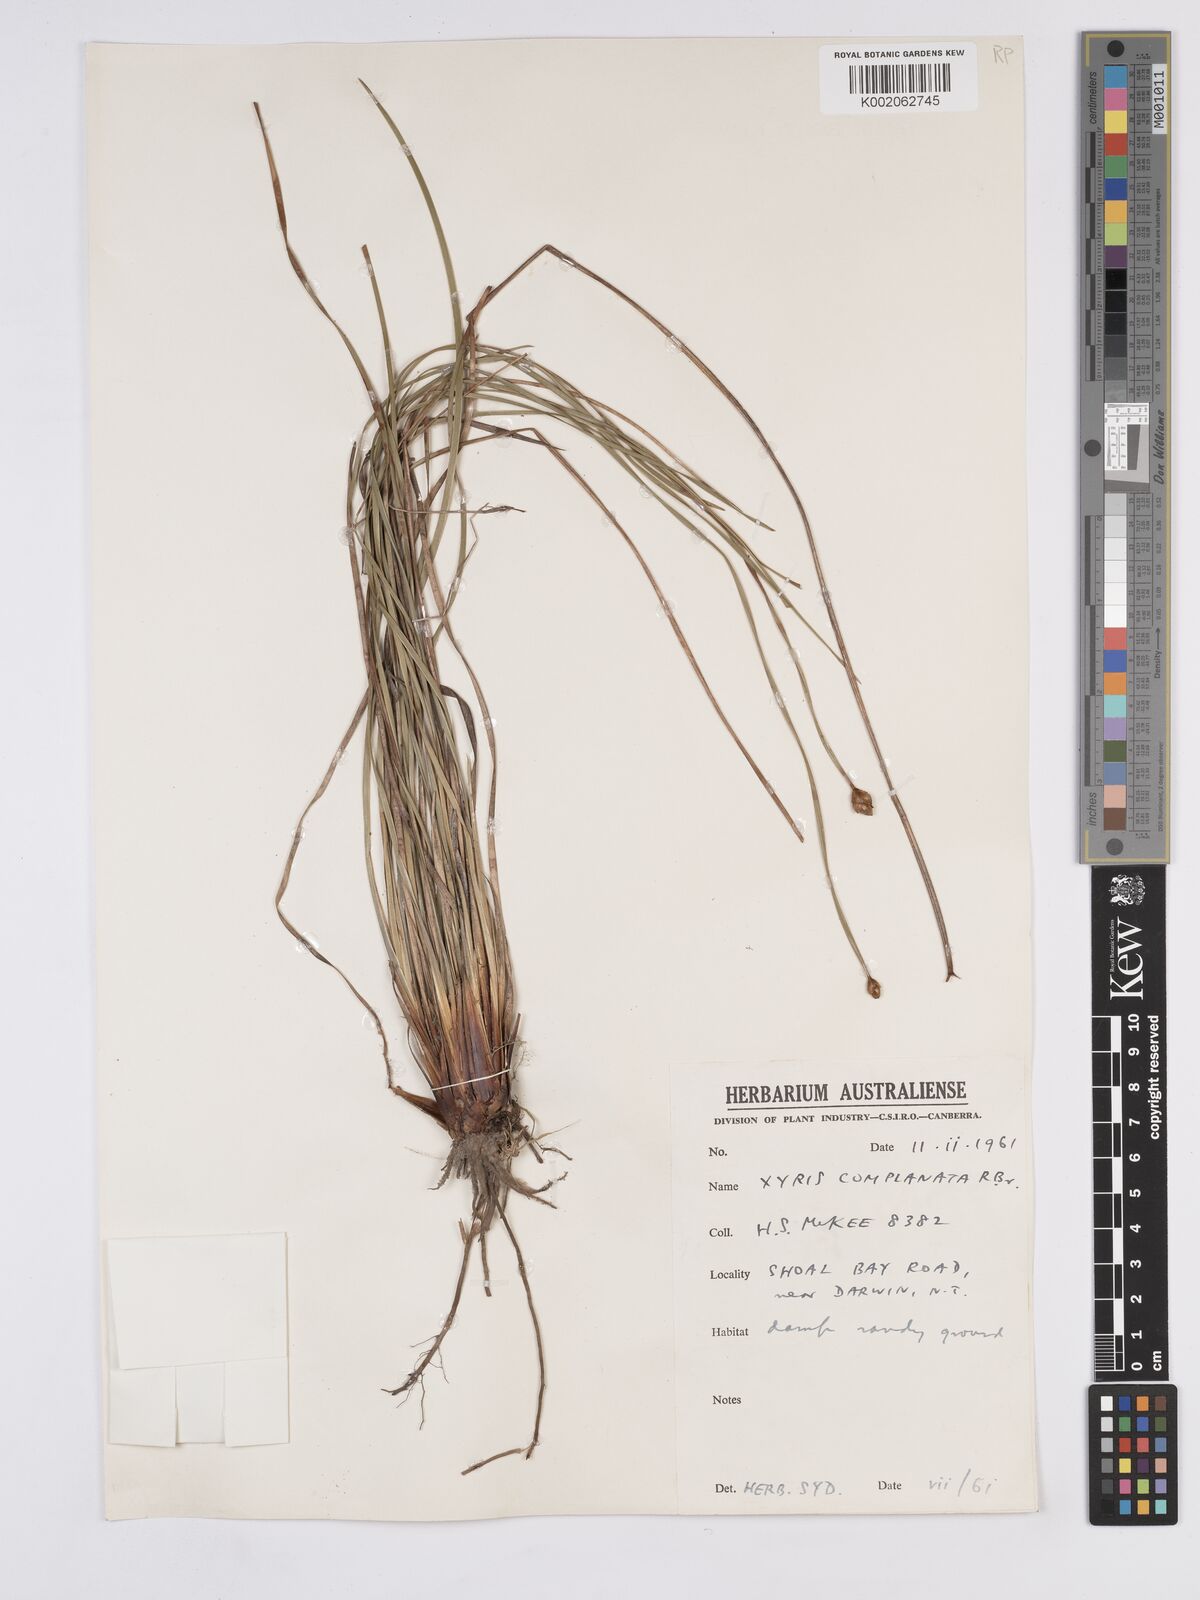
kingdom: Plantae
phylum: Tracheophyta
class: Liliopsida
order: Poales
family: Xyridaceae
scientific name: Xyridaceae
